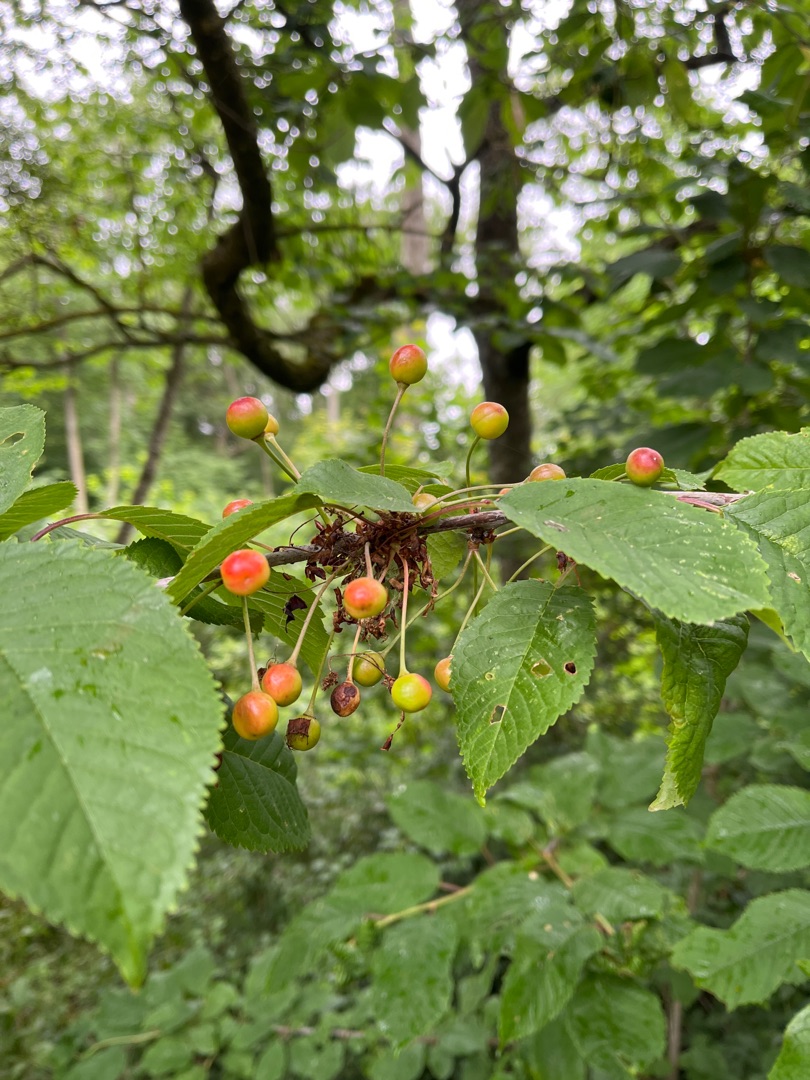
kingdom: Plantae
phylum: Tracheophyta
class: Magnoliopsida
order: Rosales
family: Rosaceae
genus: Prunus
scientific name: Prunus avium
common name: Fugle-kirsebær
